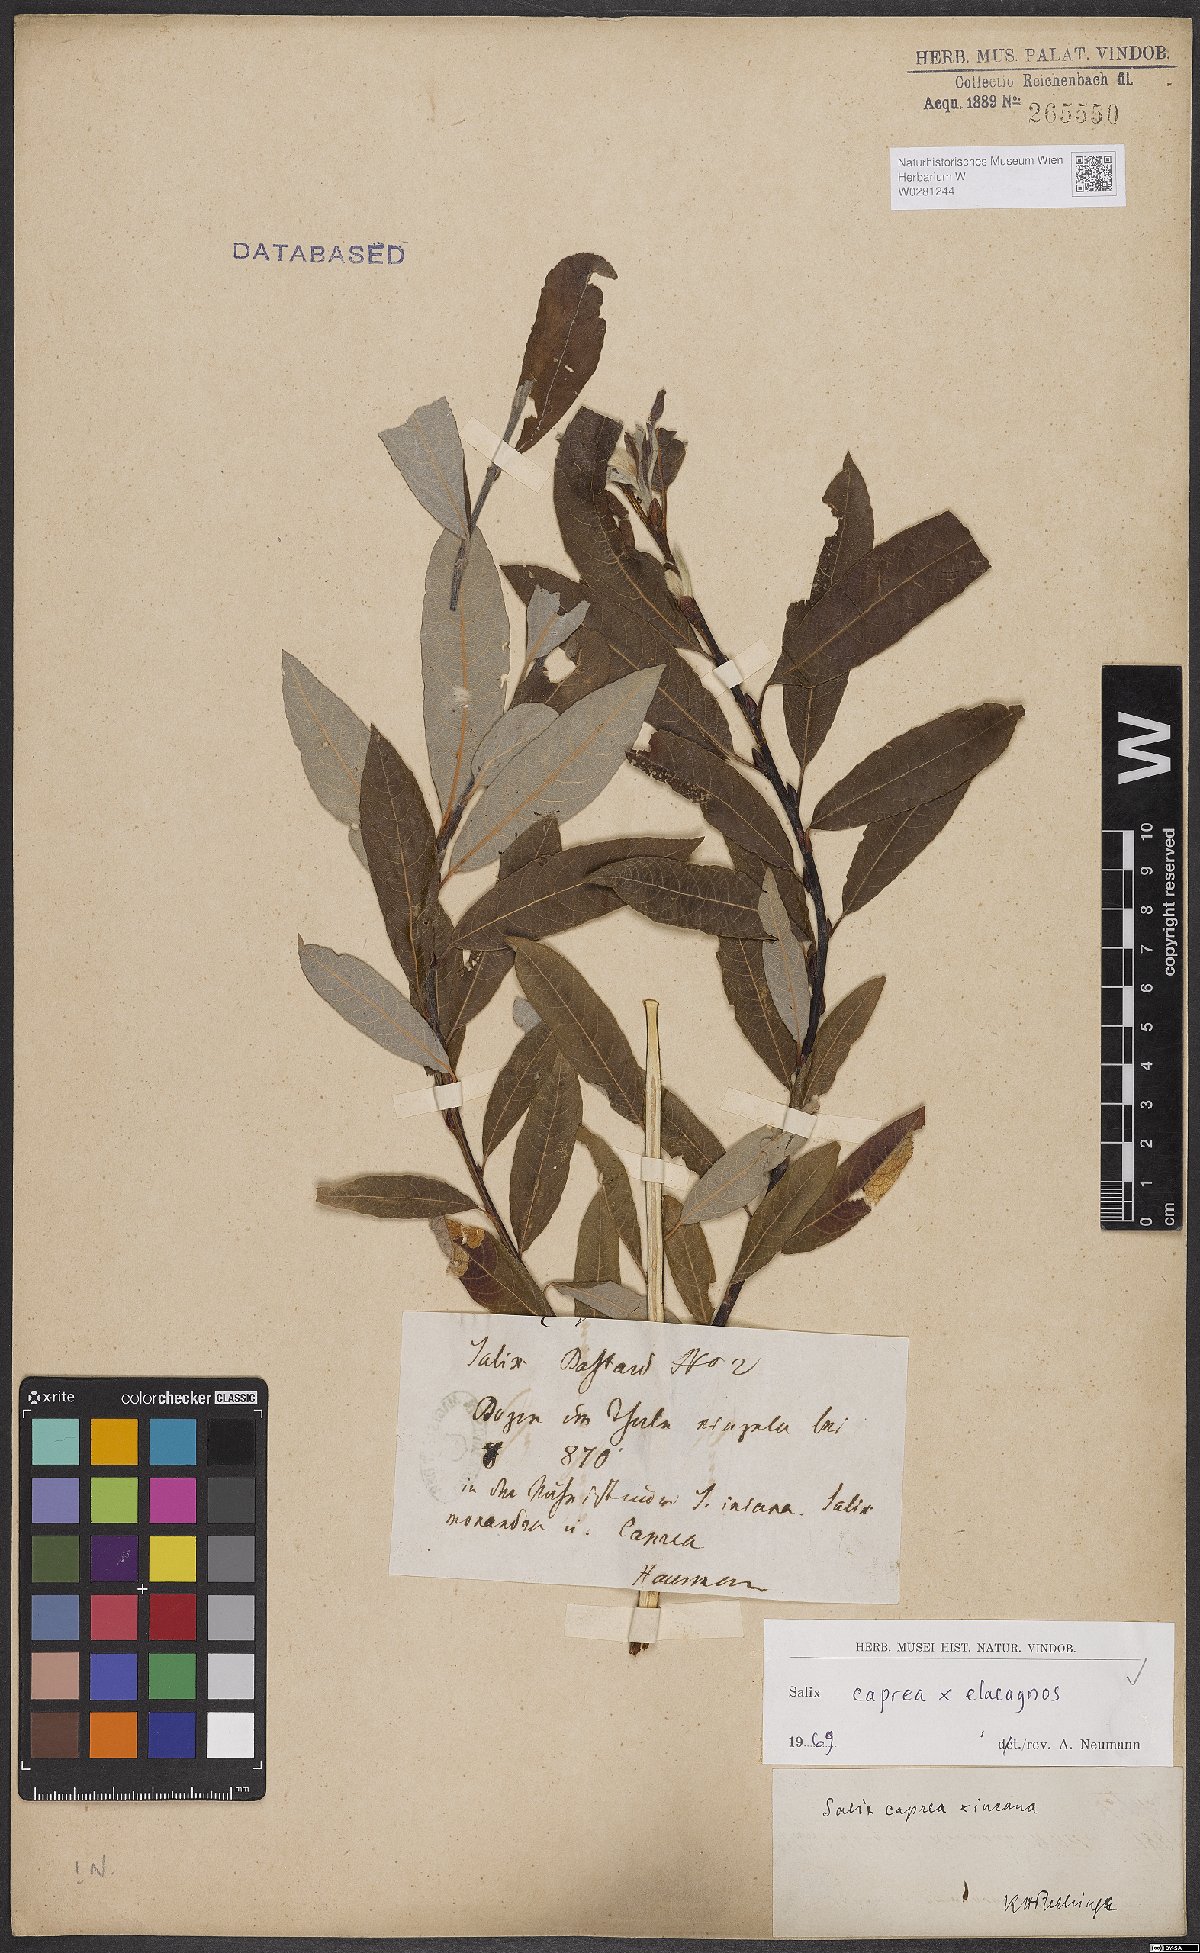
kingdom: Plantae
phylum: Tracheophyta
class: Magnoliopsida
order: Malpighiales
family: Salicaceae
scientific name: Salicaceae
